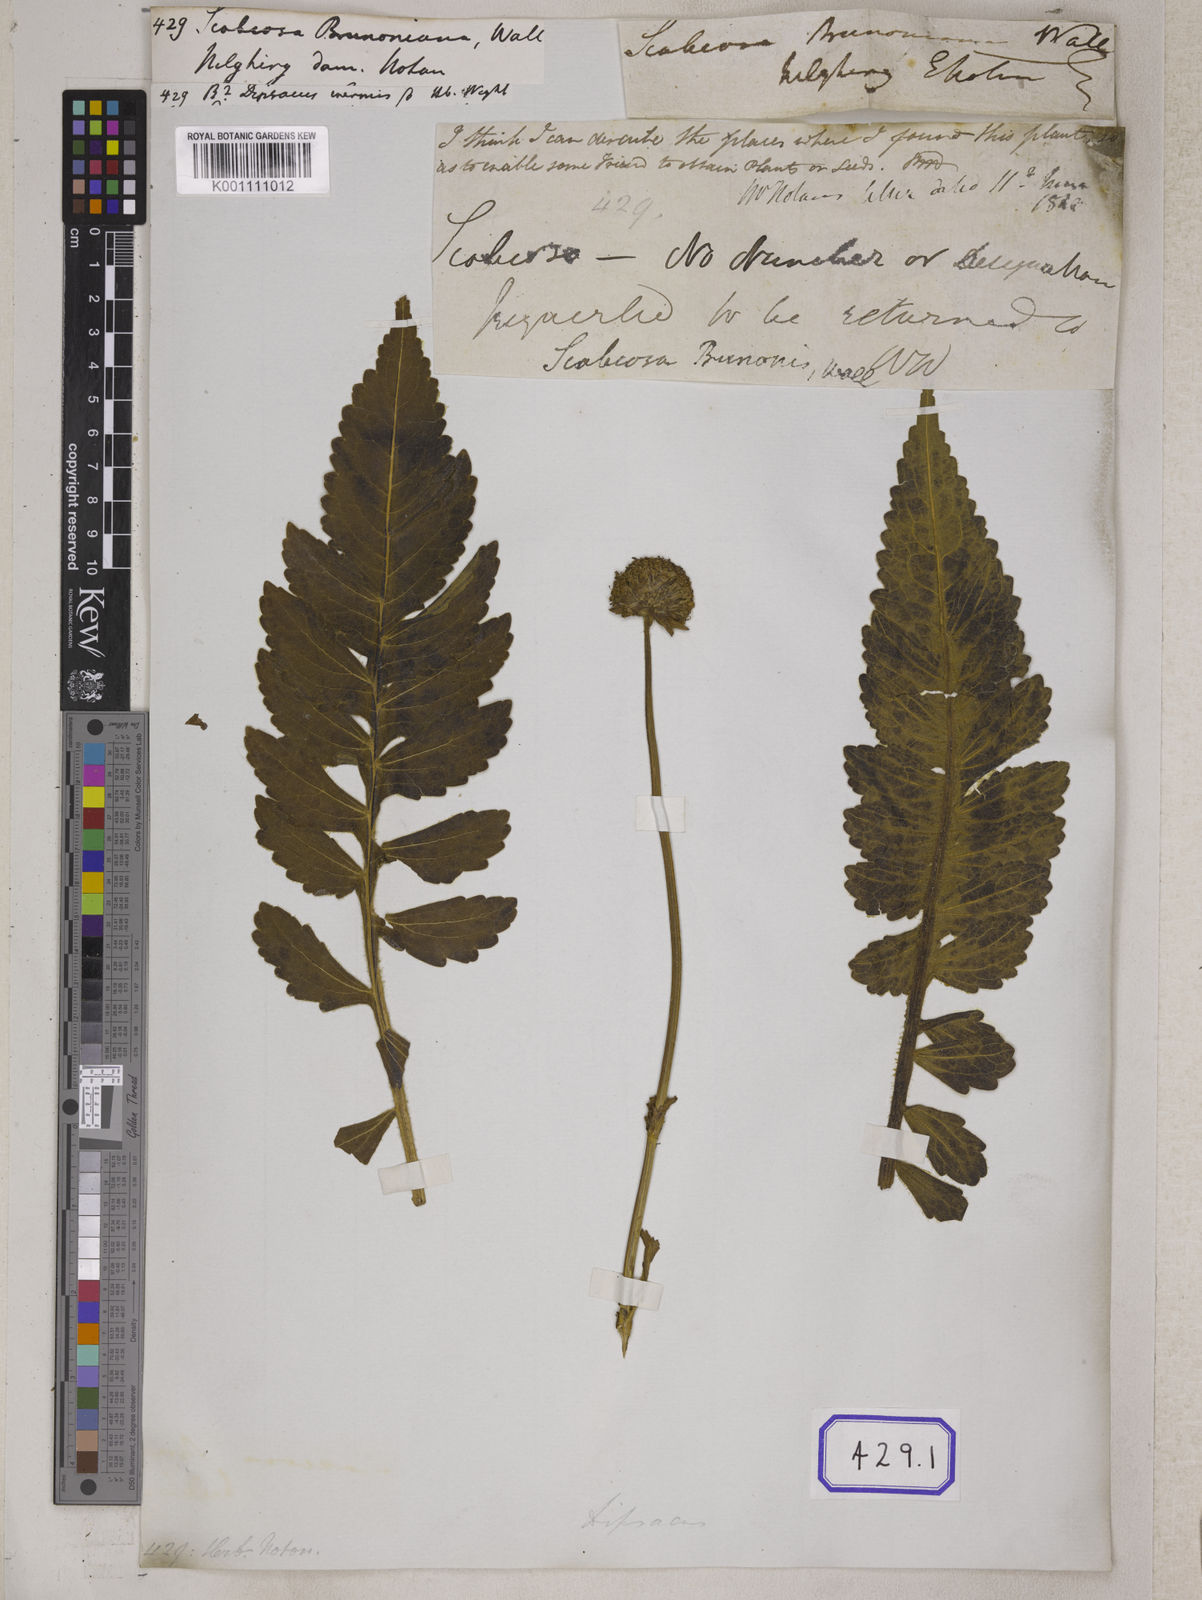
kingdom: Plantae
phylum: Tracheophyta
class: Magnoliopsida
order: Dipsacales
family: Caprifoliaceae
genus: Dipsacus
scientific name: Dipsacus leschenaultii
